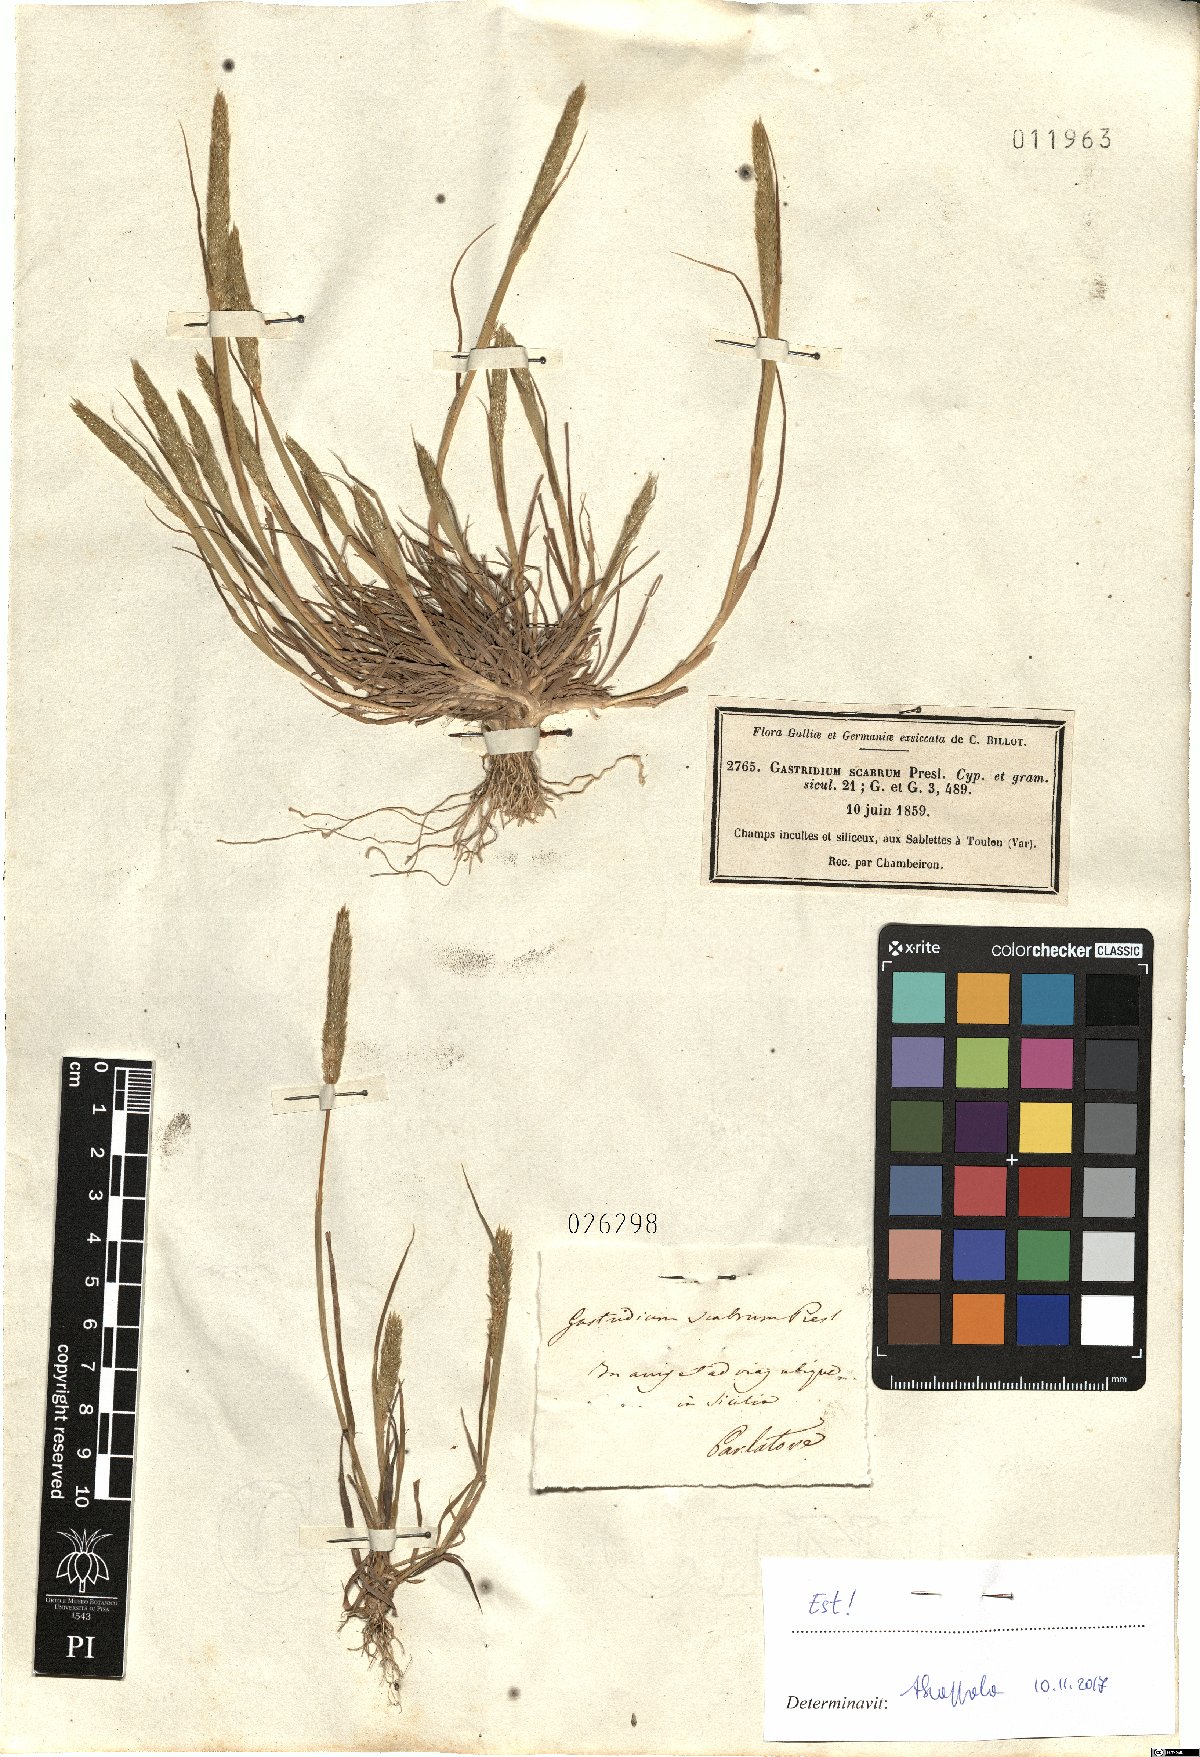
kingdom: Plantae
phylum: Tracheophyta
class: Liliopsida
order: Poales
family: Poaceae
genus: Gastridium
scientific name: Gastridium scabrum
